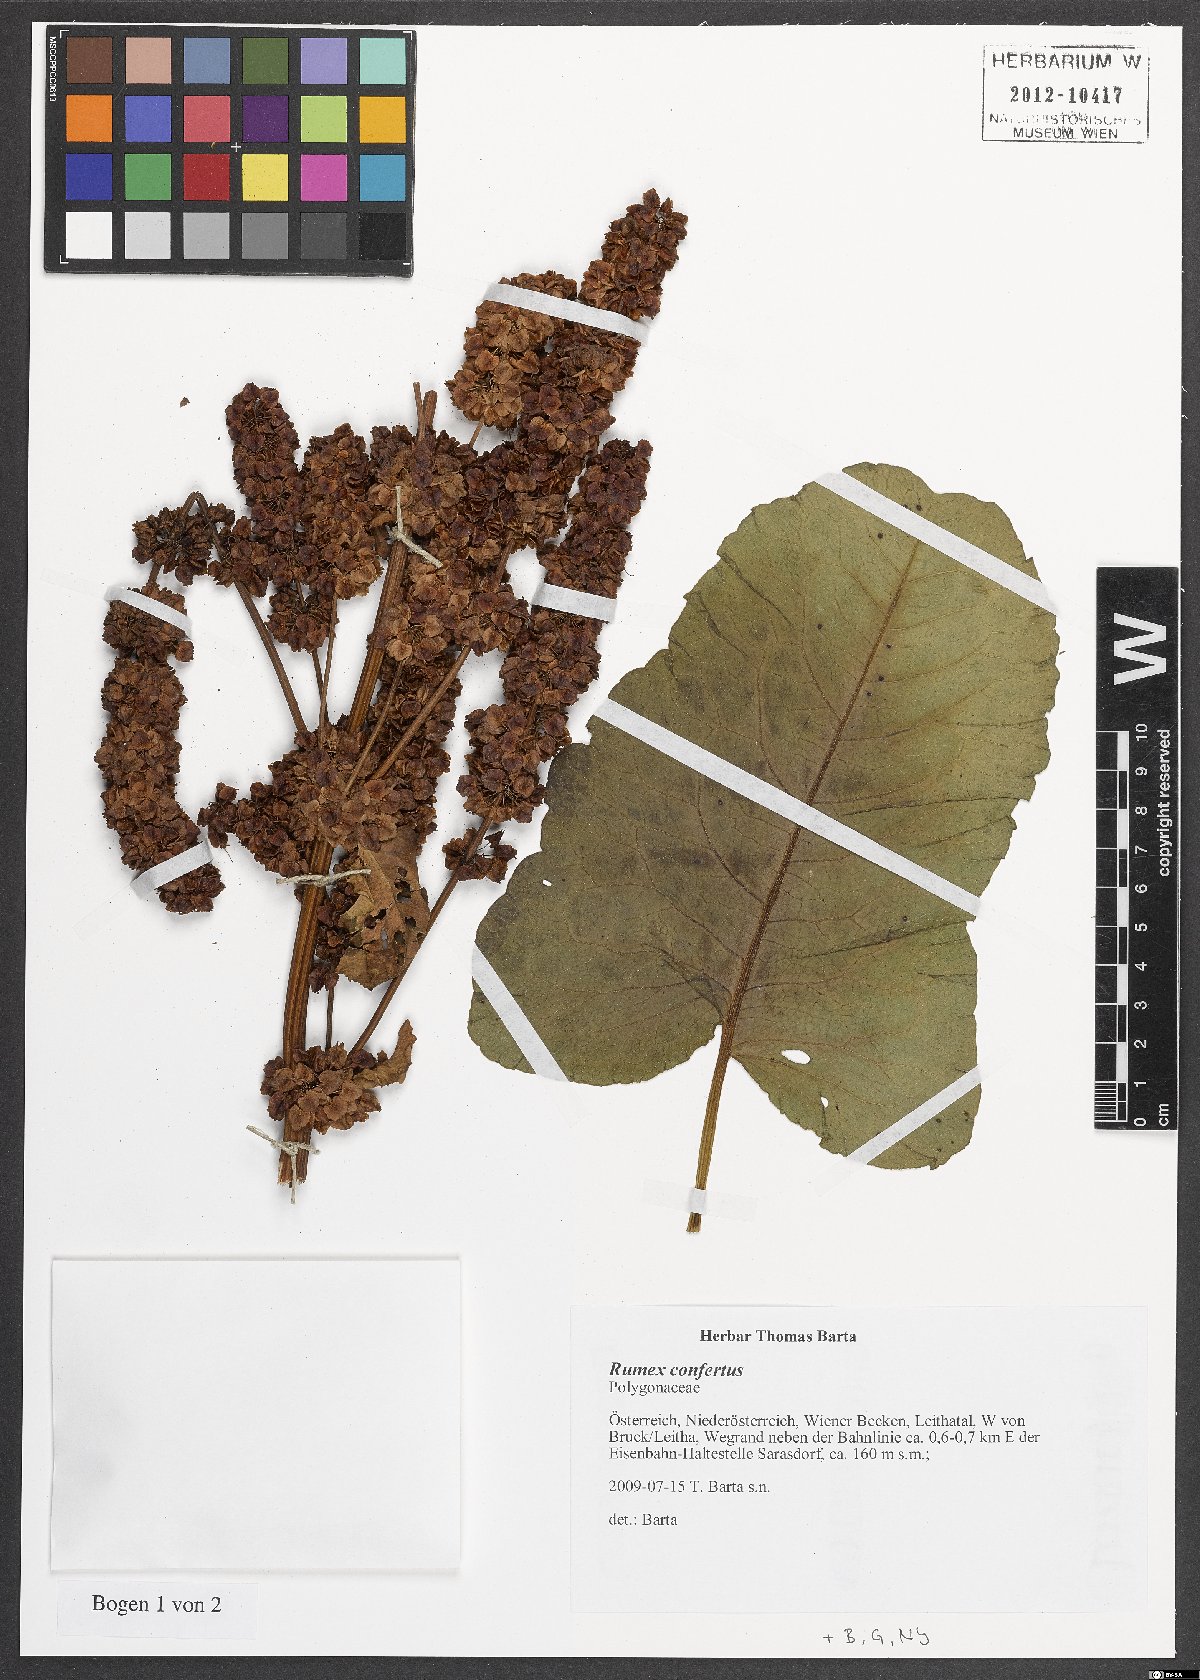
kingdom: Plantae
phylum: Tracheophyta
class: Magnoliopsida
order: Caryophyllales
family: Polygonaceae
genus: Rumex
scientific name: Rumex confertus
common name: Russian dock
